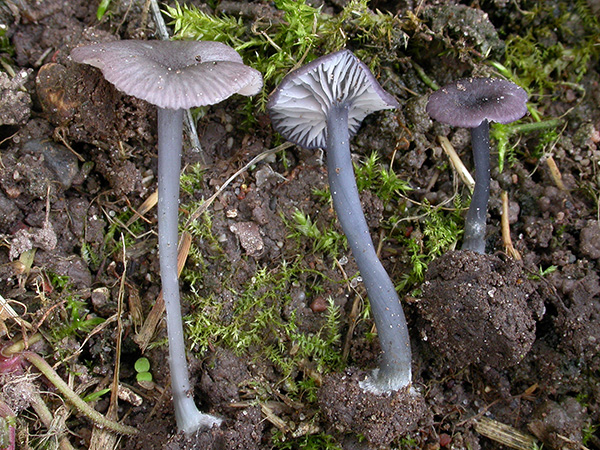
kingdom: Fungi
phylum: Basidiomycota
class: Agaricomycetes
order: Agaricales
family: Entolomataceae
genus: Entoloma
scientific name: Entoloma
